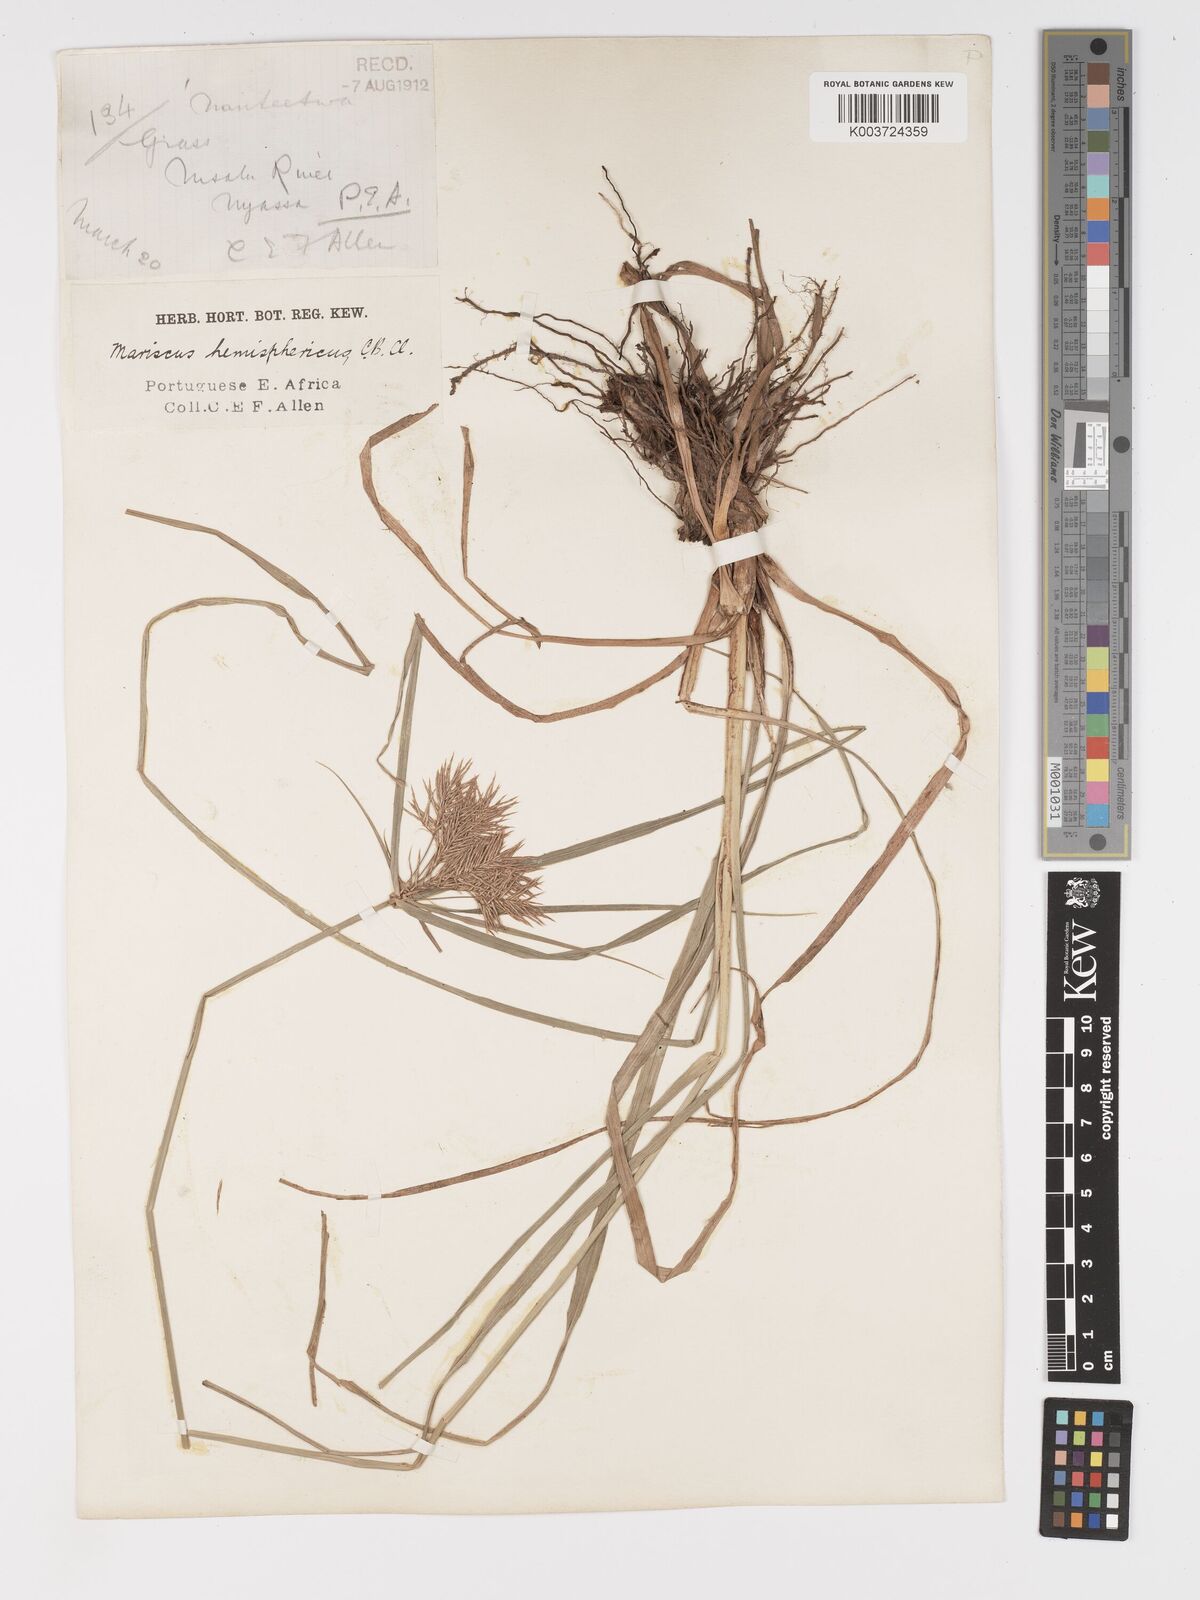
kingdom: Plantae
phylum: Tracheophyta
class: Liliopsida
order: Poales
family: Cyperaceae
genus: Cyperus
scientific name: Cyperus hemisphaericus
